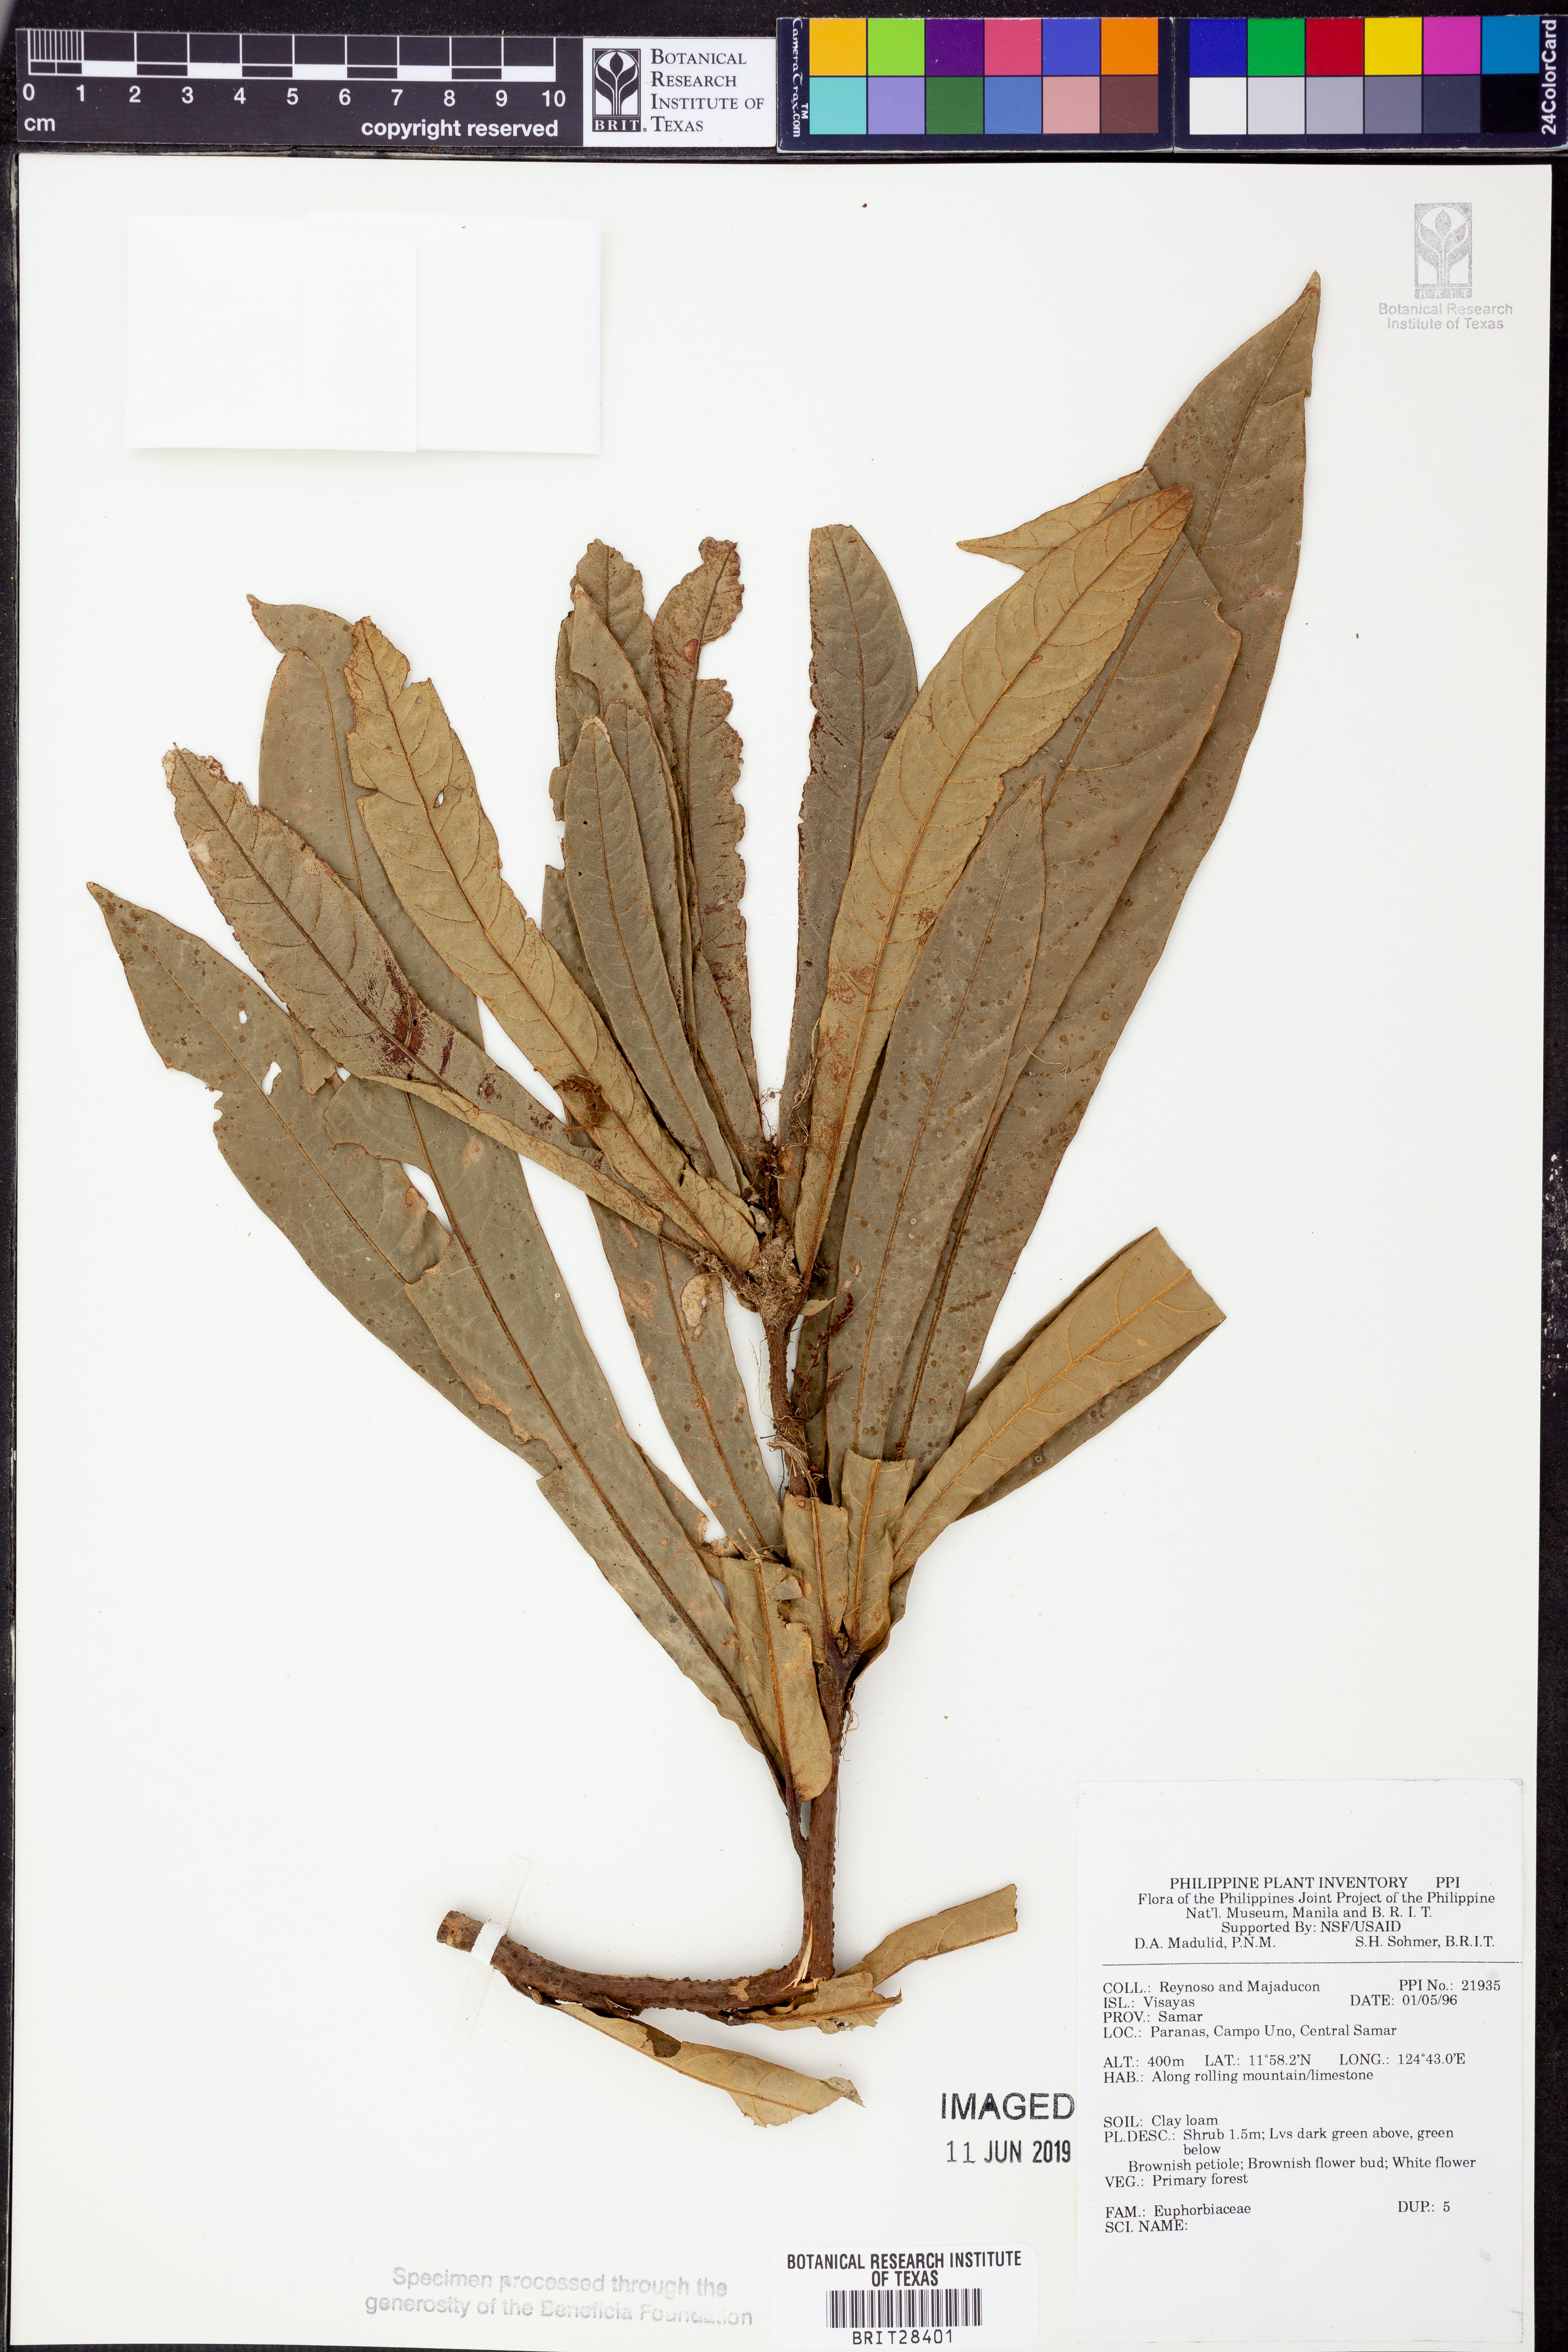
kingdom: Plantae
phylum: Tracheophyta
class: Magnoliopsida
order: Malpighiales
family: Euphorbiaceae
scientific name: Euphorbiaceae
